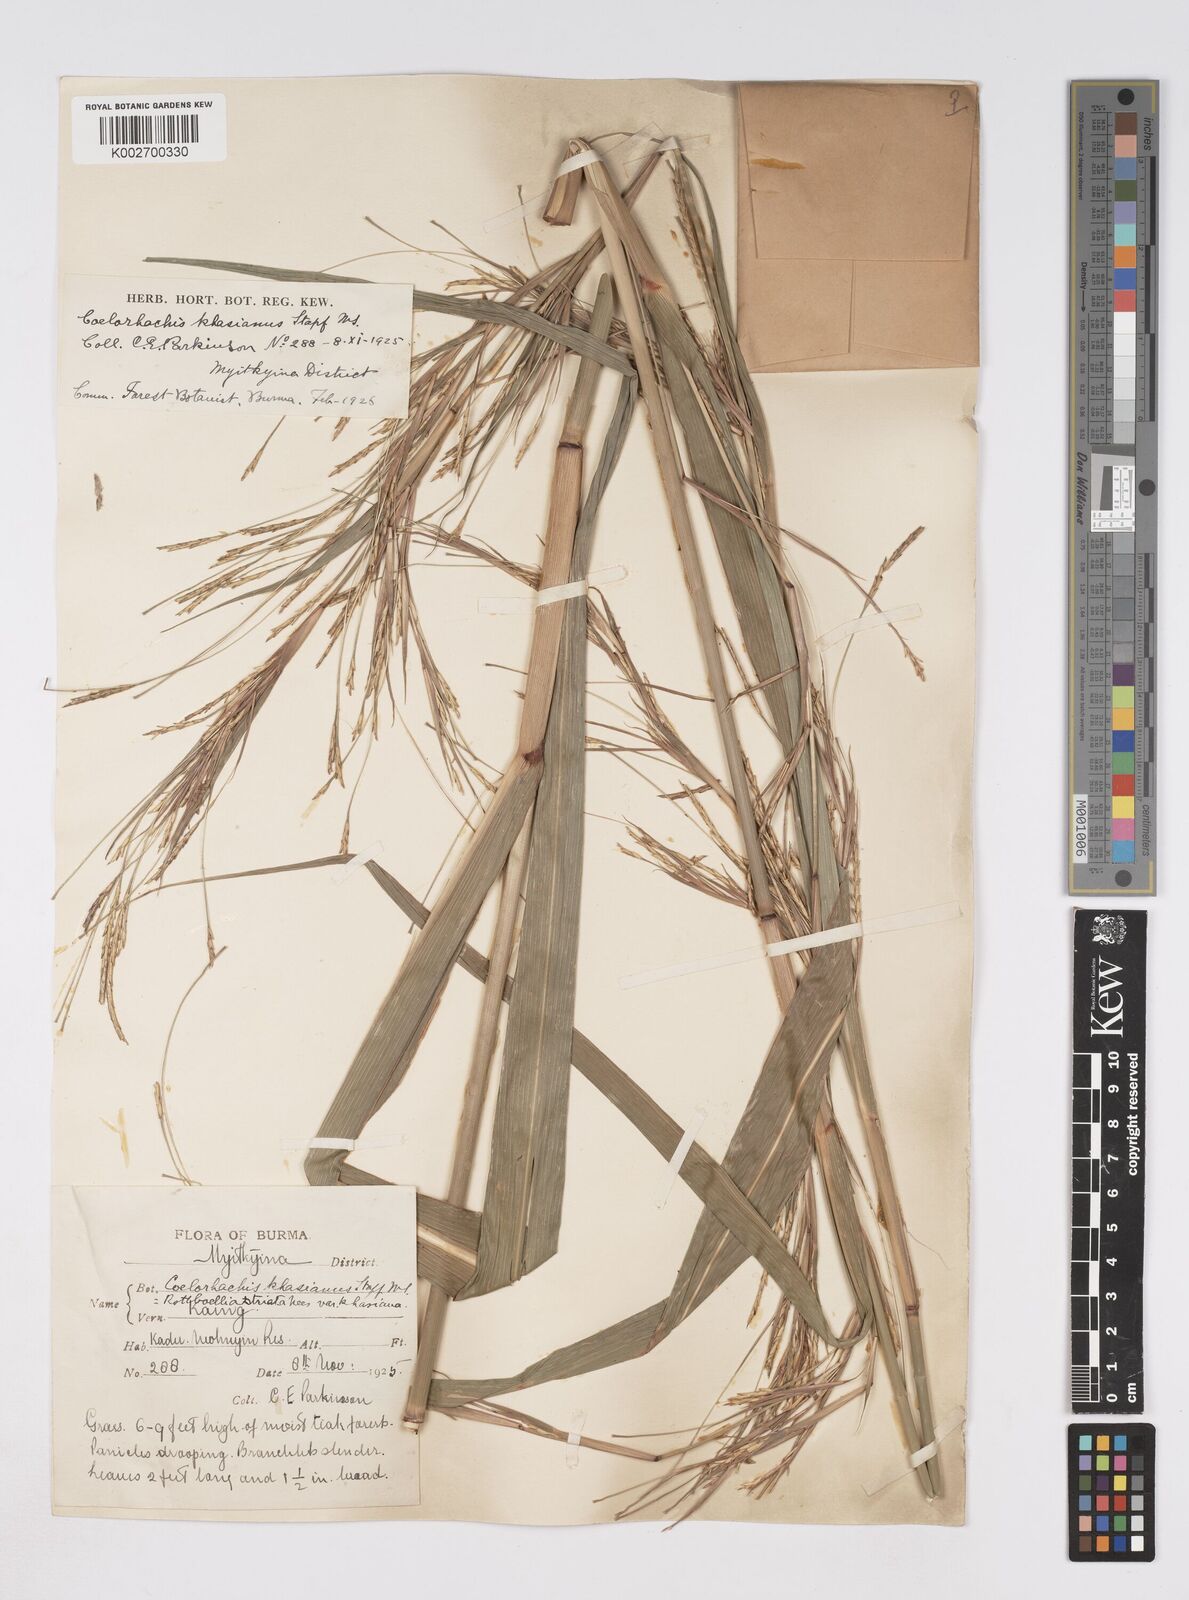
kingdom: Plantae
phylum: Tracheophyta
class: Liliopsida
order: Poales
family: Poaceae
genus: Rottboellia
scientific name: Rottboellia striata
